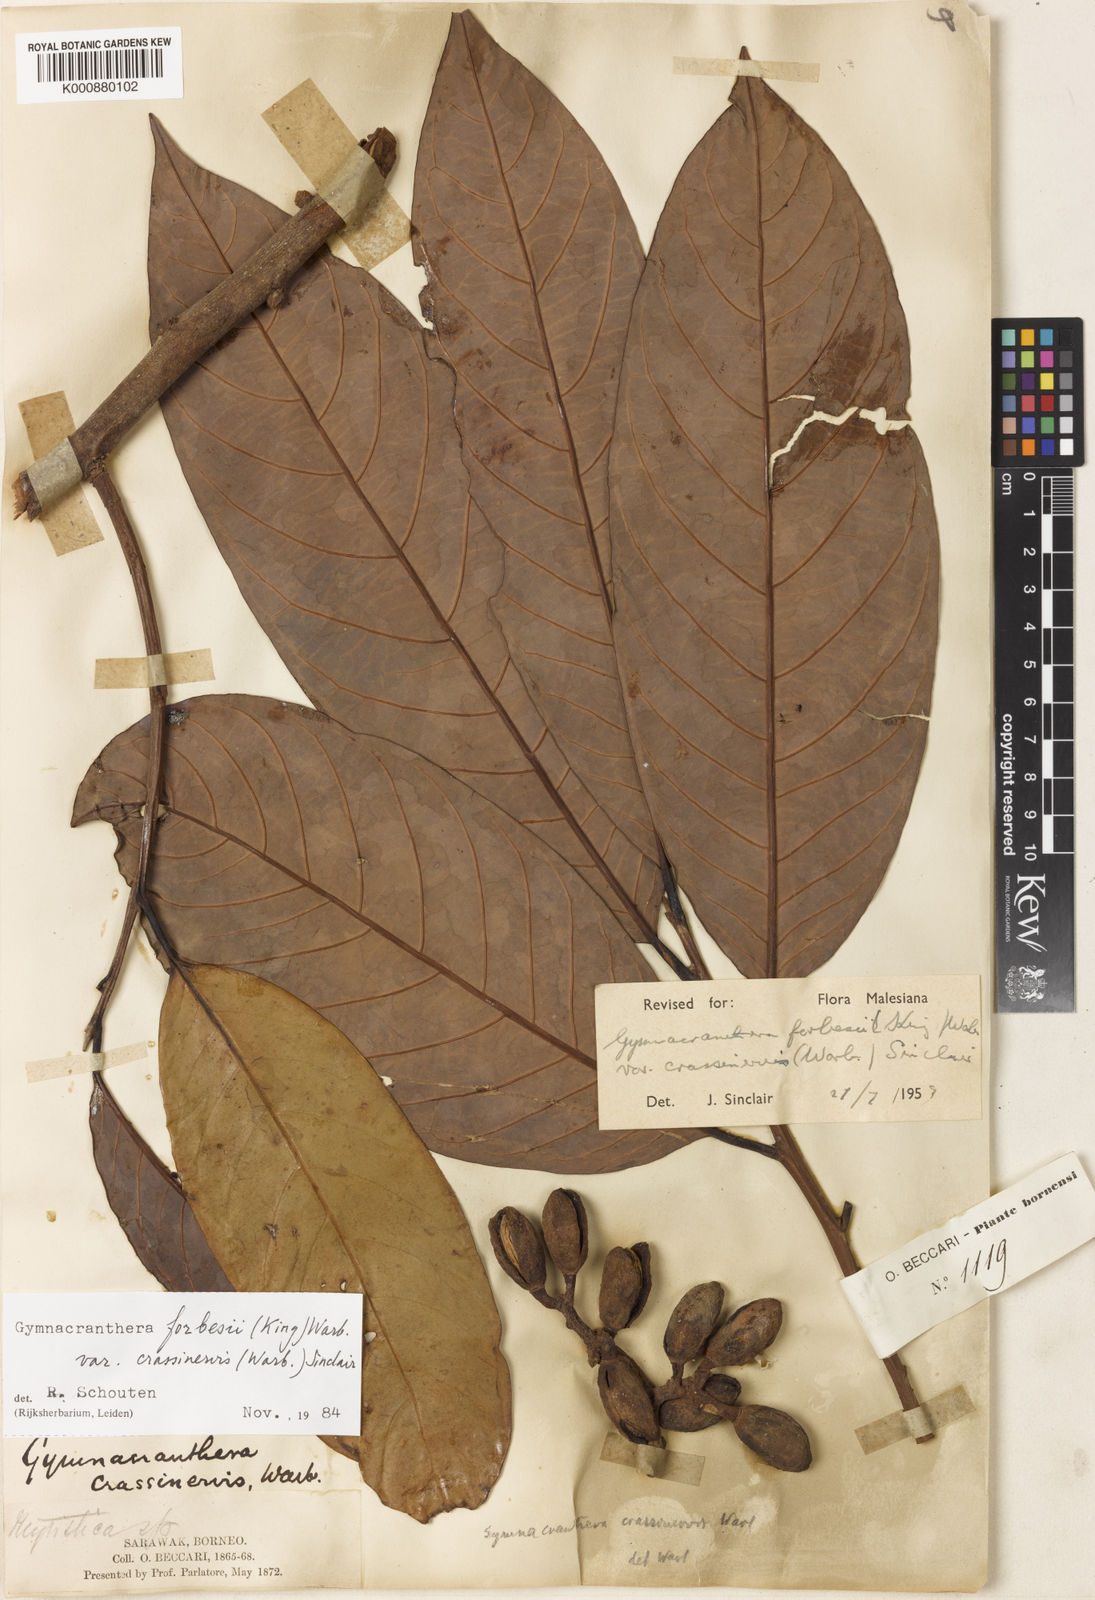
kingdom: Plantae
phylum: Tracheophyta
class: Magnoliopsida
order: Magnoliales
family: Myristicaceae
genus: Gymnacranthera
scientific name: Gymnacranthera forbesii
